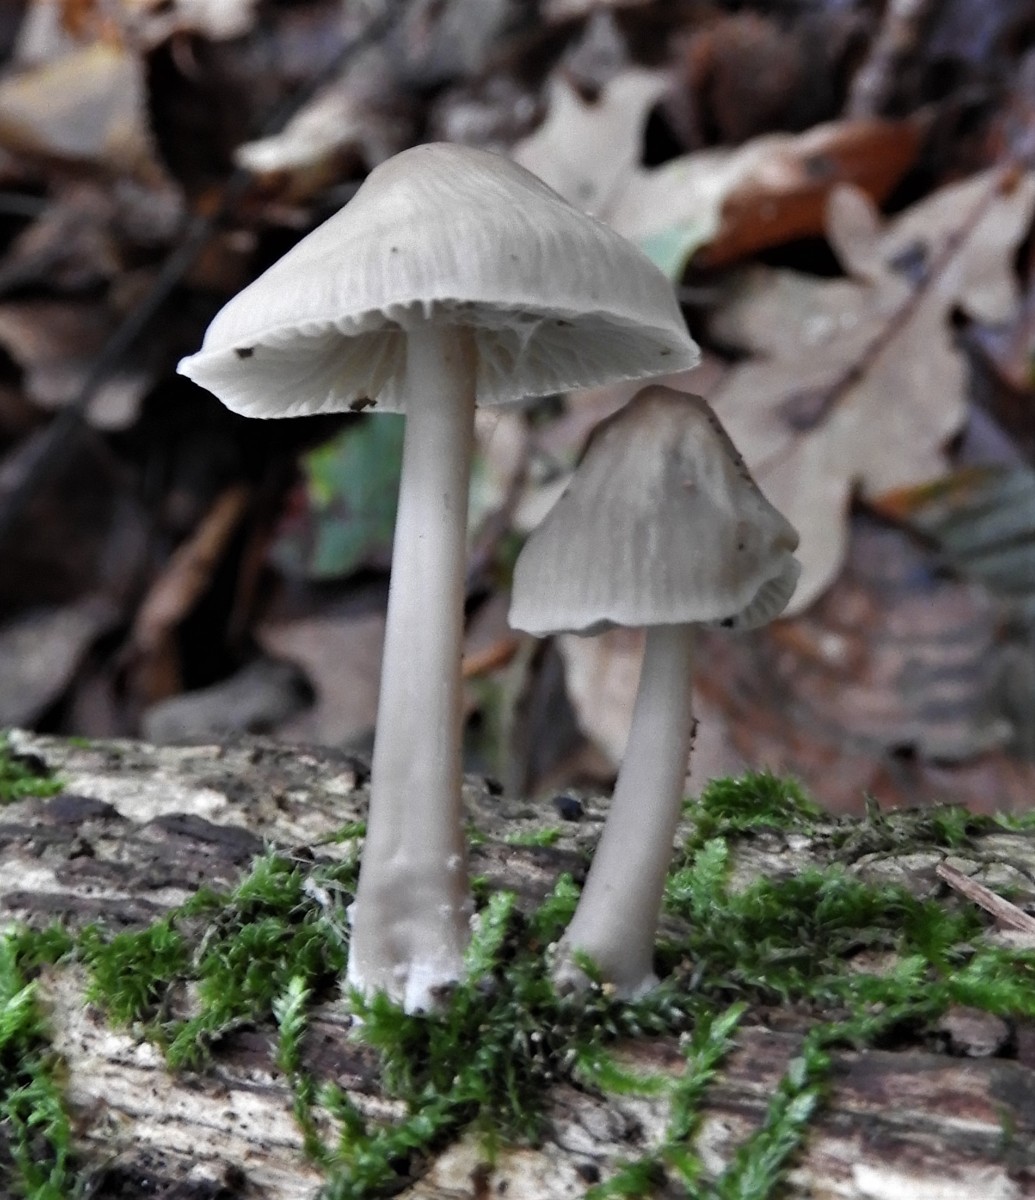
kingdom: Fungi
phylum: Basidiomycota
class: Agaricomycetes
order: Agaricales
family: Mycenaceae
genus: Mycena
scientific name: Mycena galericulata
